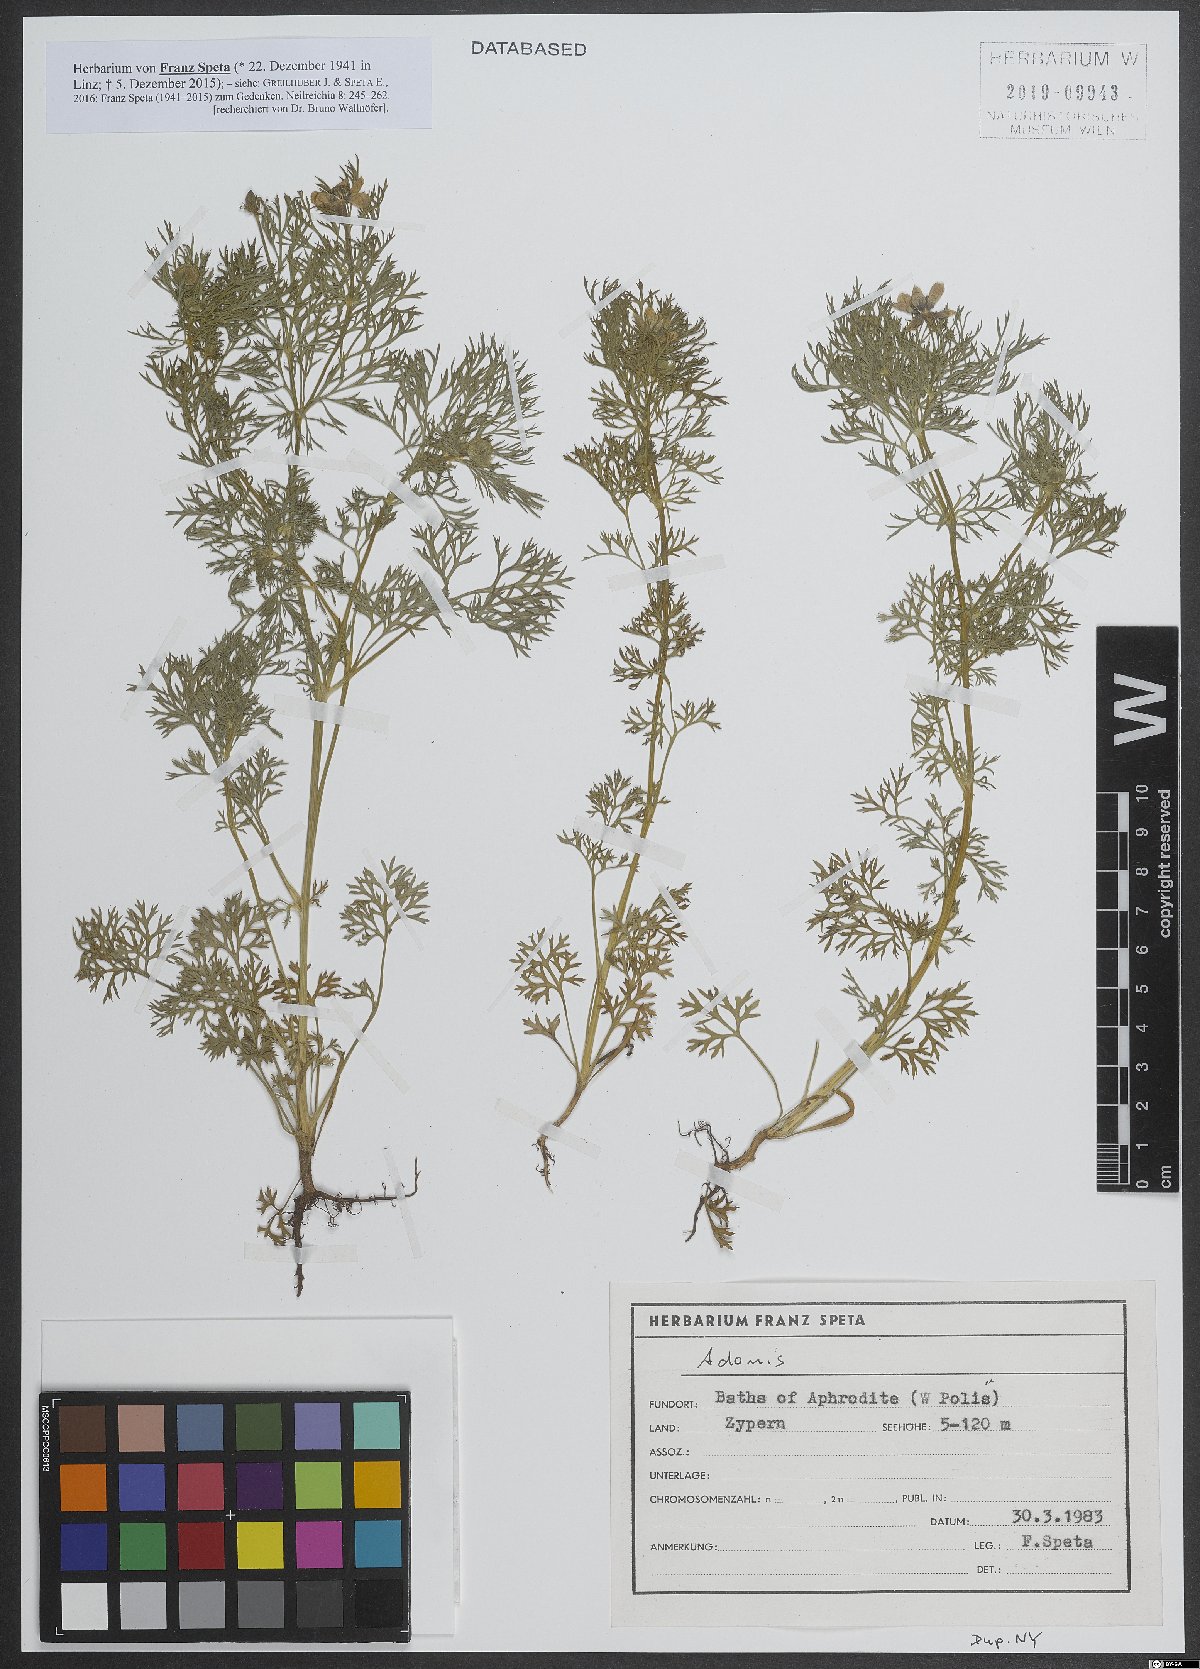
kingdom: Plantae
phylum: Tracheophyta
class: Magnoliopsida
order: Ranunculales
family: Ranunculaceae
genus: Adonis
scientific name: Adonis
